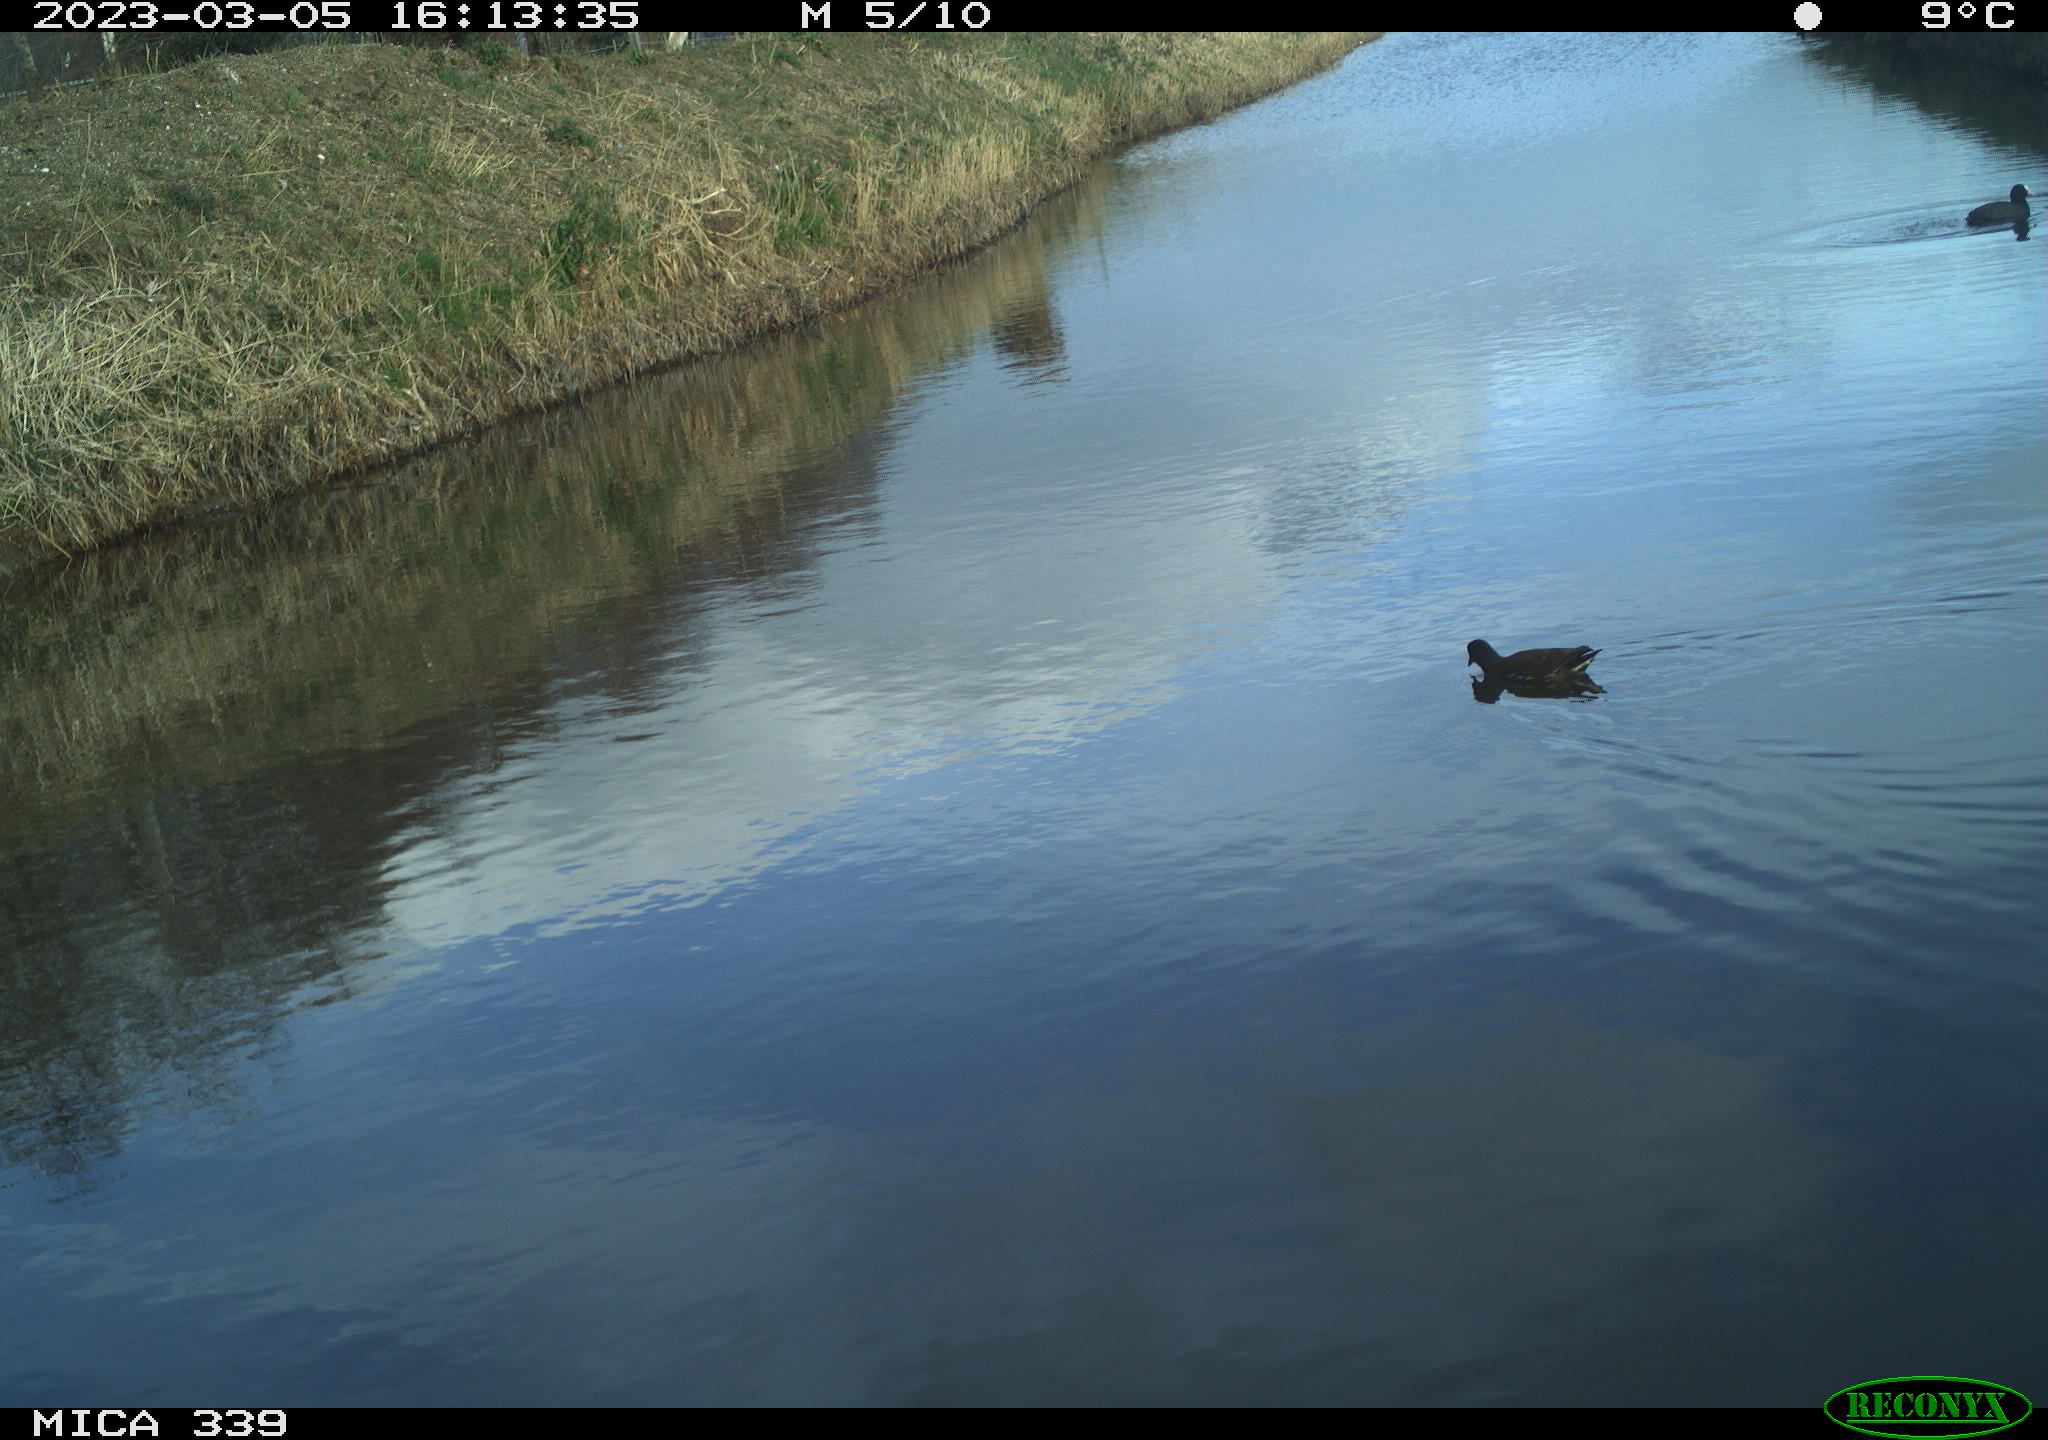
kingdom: Animalia
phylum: Chordata
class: Aves
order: Gruiformes
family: Rallidae
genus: Gallinula
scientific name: Gallinula chloropus
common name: Common moorhen
